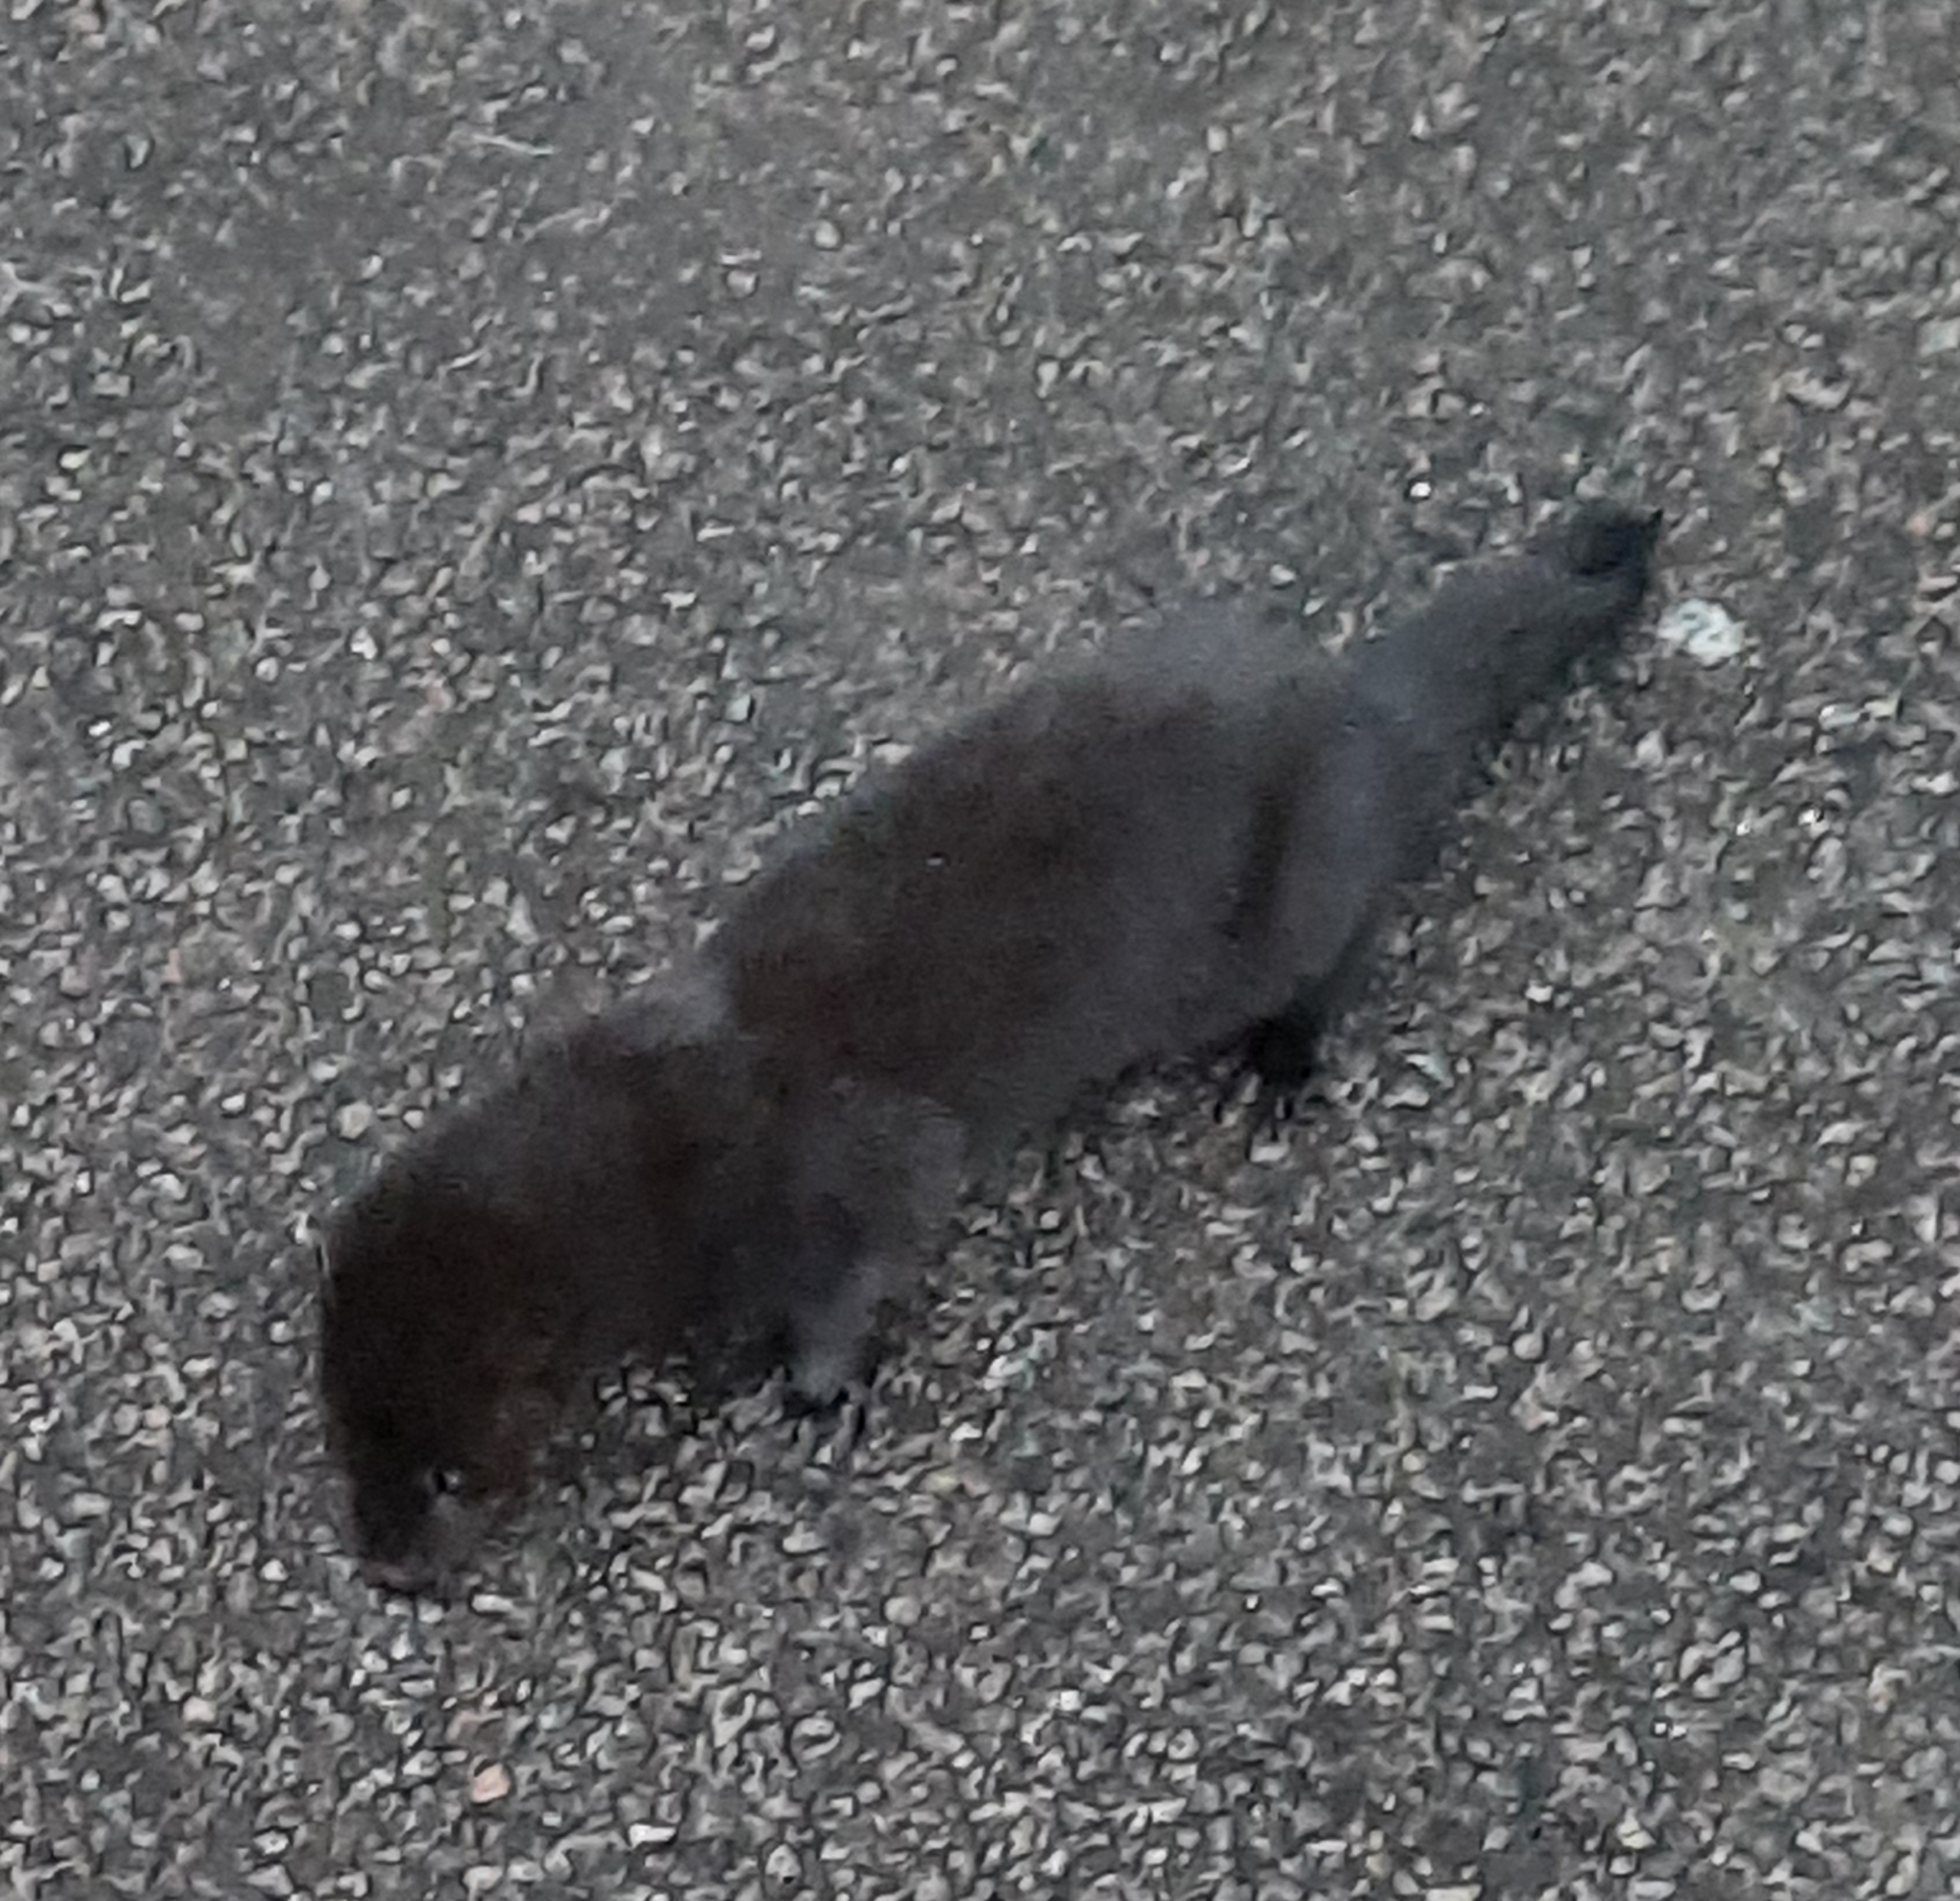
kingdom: Animalia
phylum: Chordata
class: Mammalia
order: Carnivora
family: Mustelidae
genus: Mustela
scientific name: Mustela vison
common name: Mink
